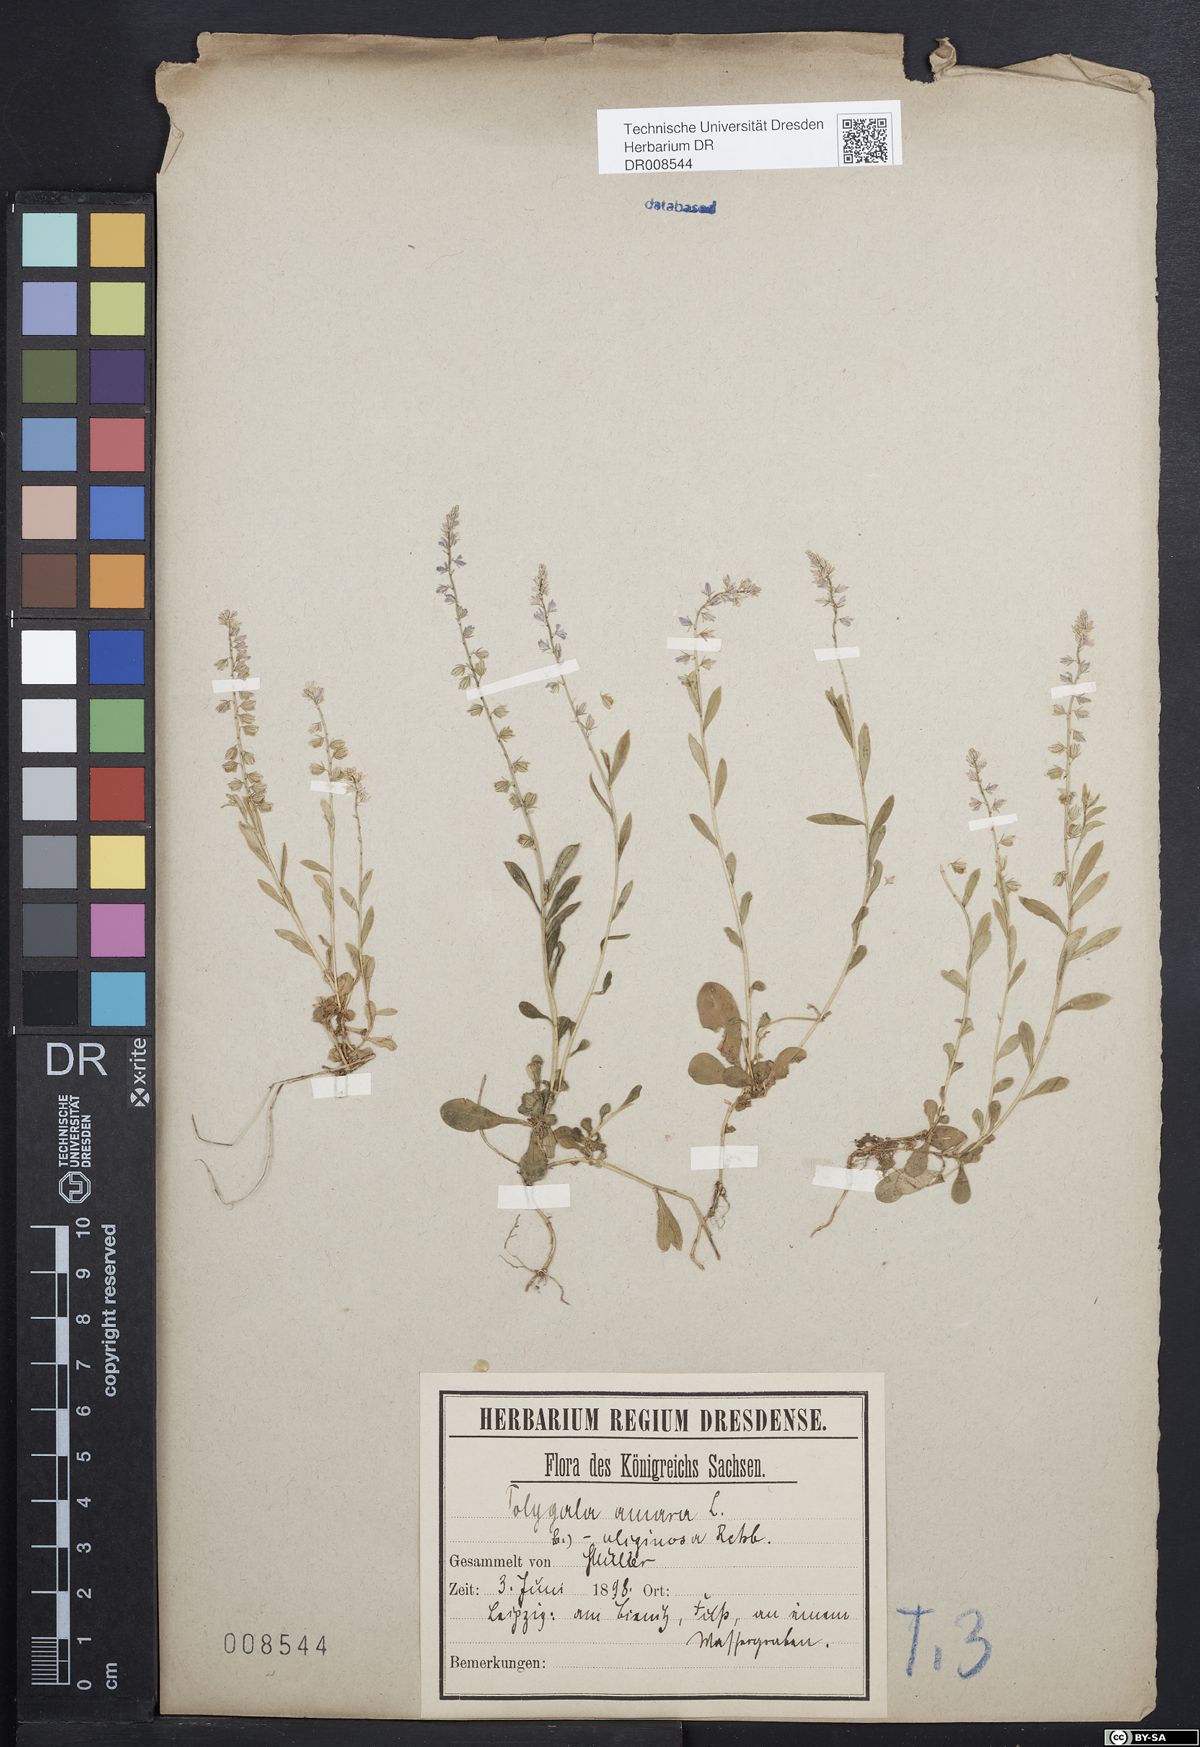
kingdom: Plantae
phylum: Tracheophyta
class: Magnoliopsida
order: Fabales
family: Polygalaceae
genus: Polygala
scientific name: Polygala amarella
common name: Dwarf milkwort
